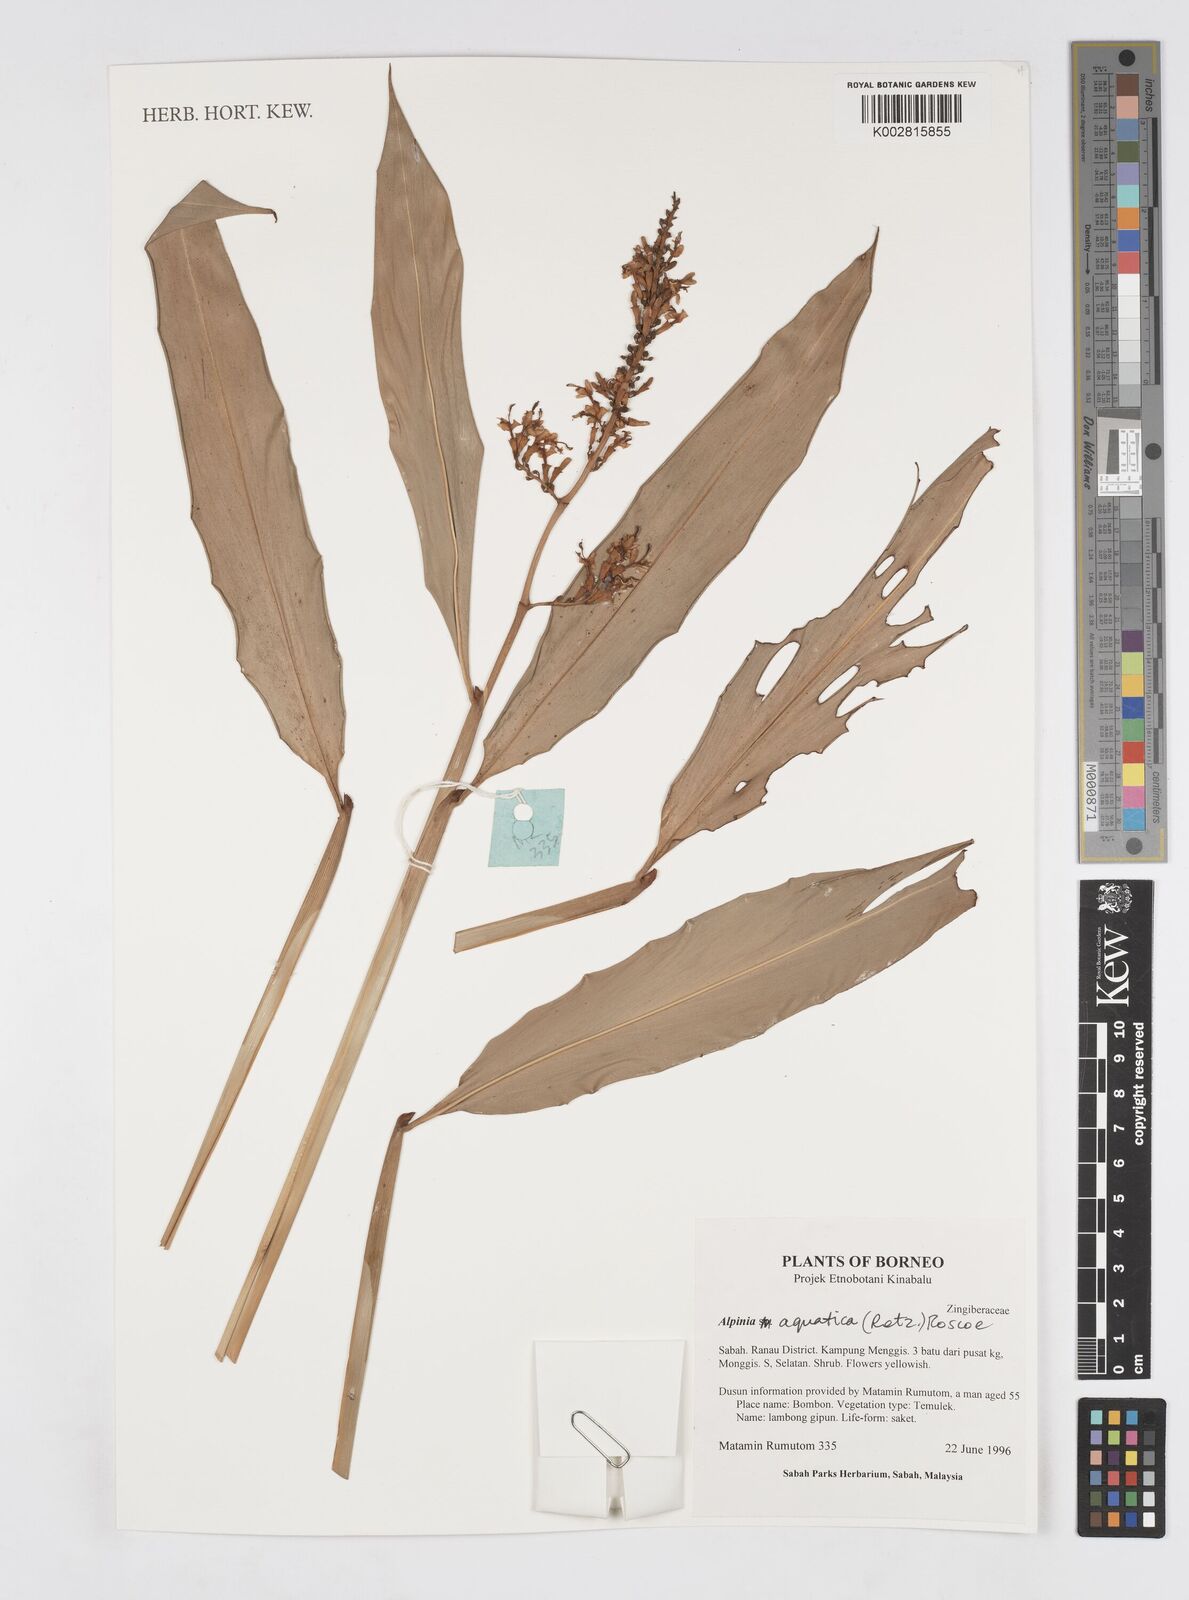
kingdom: Plantae
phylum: Tracheophyta
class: Liliopsida
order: Zingiberales
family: Zingiberaceae
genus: Alpinia
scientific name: Alpinia aquatica
